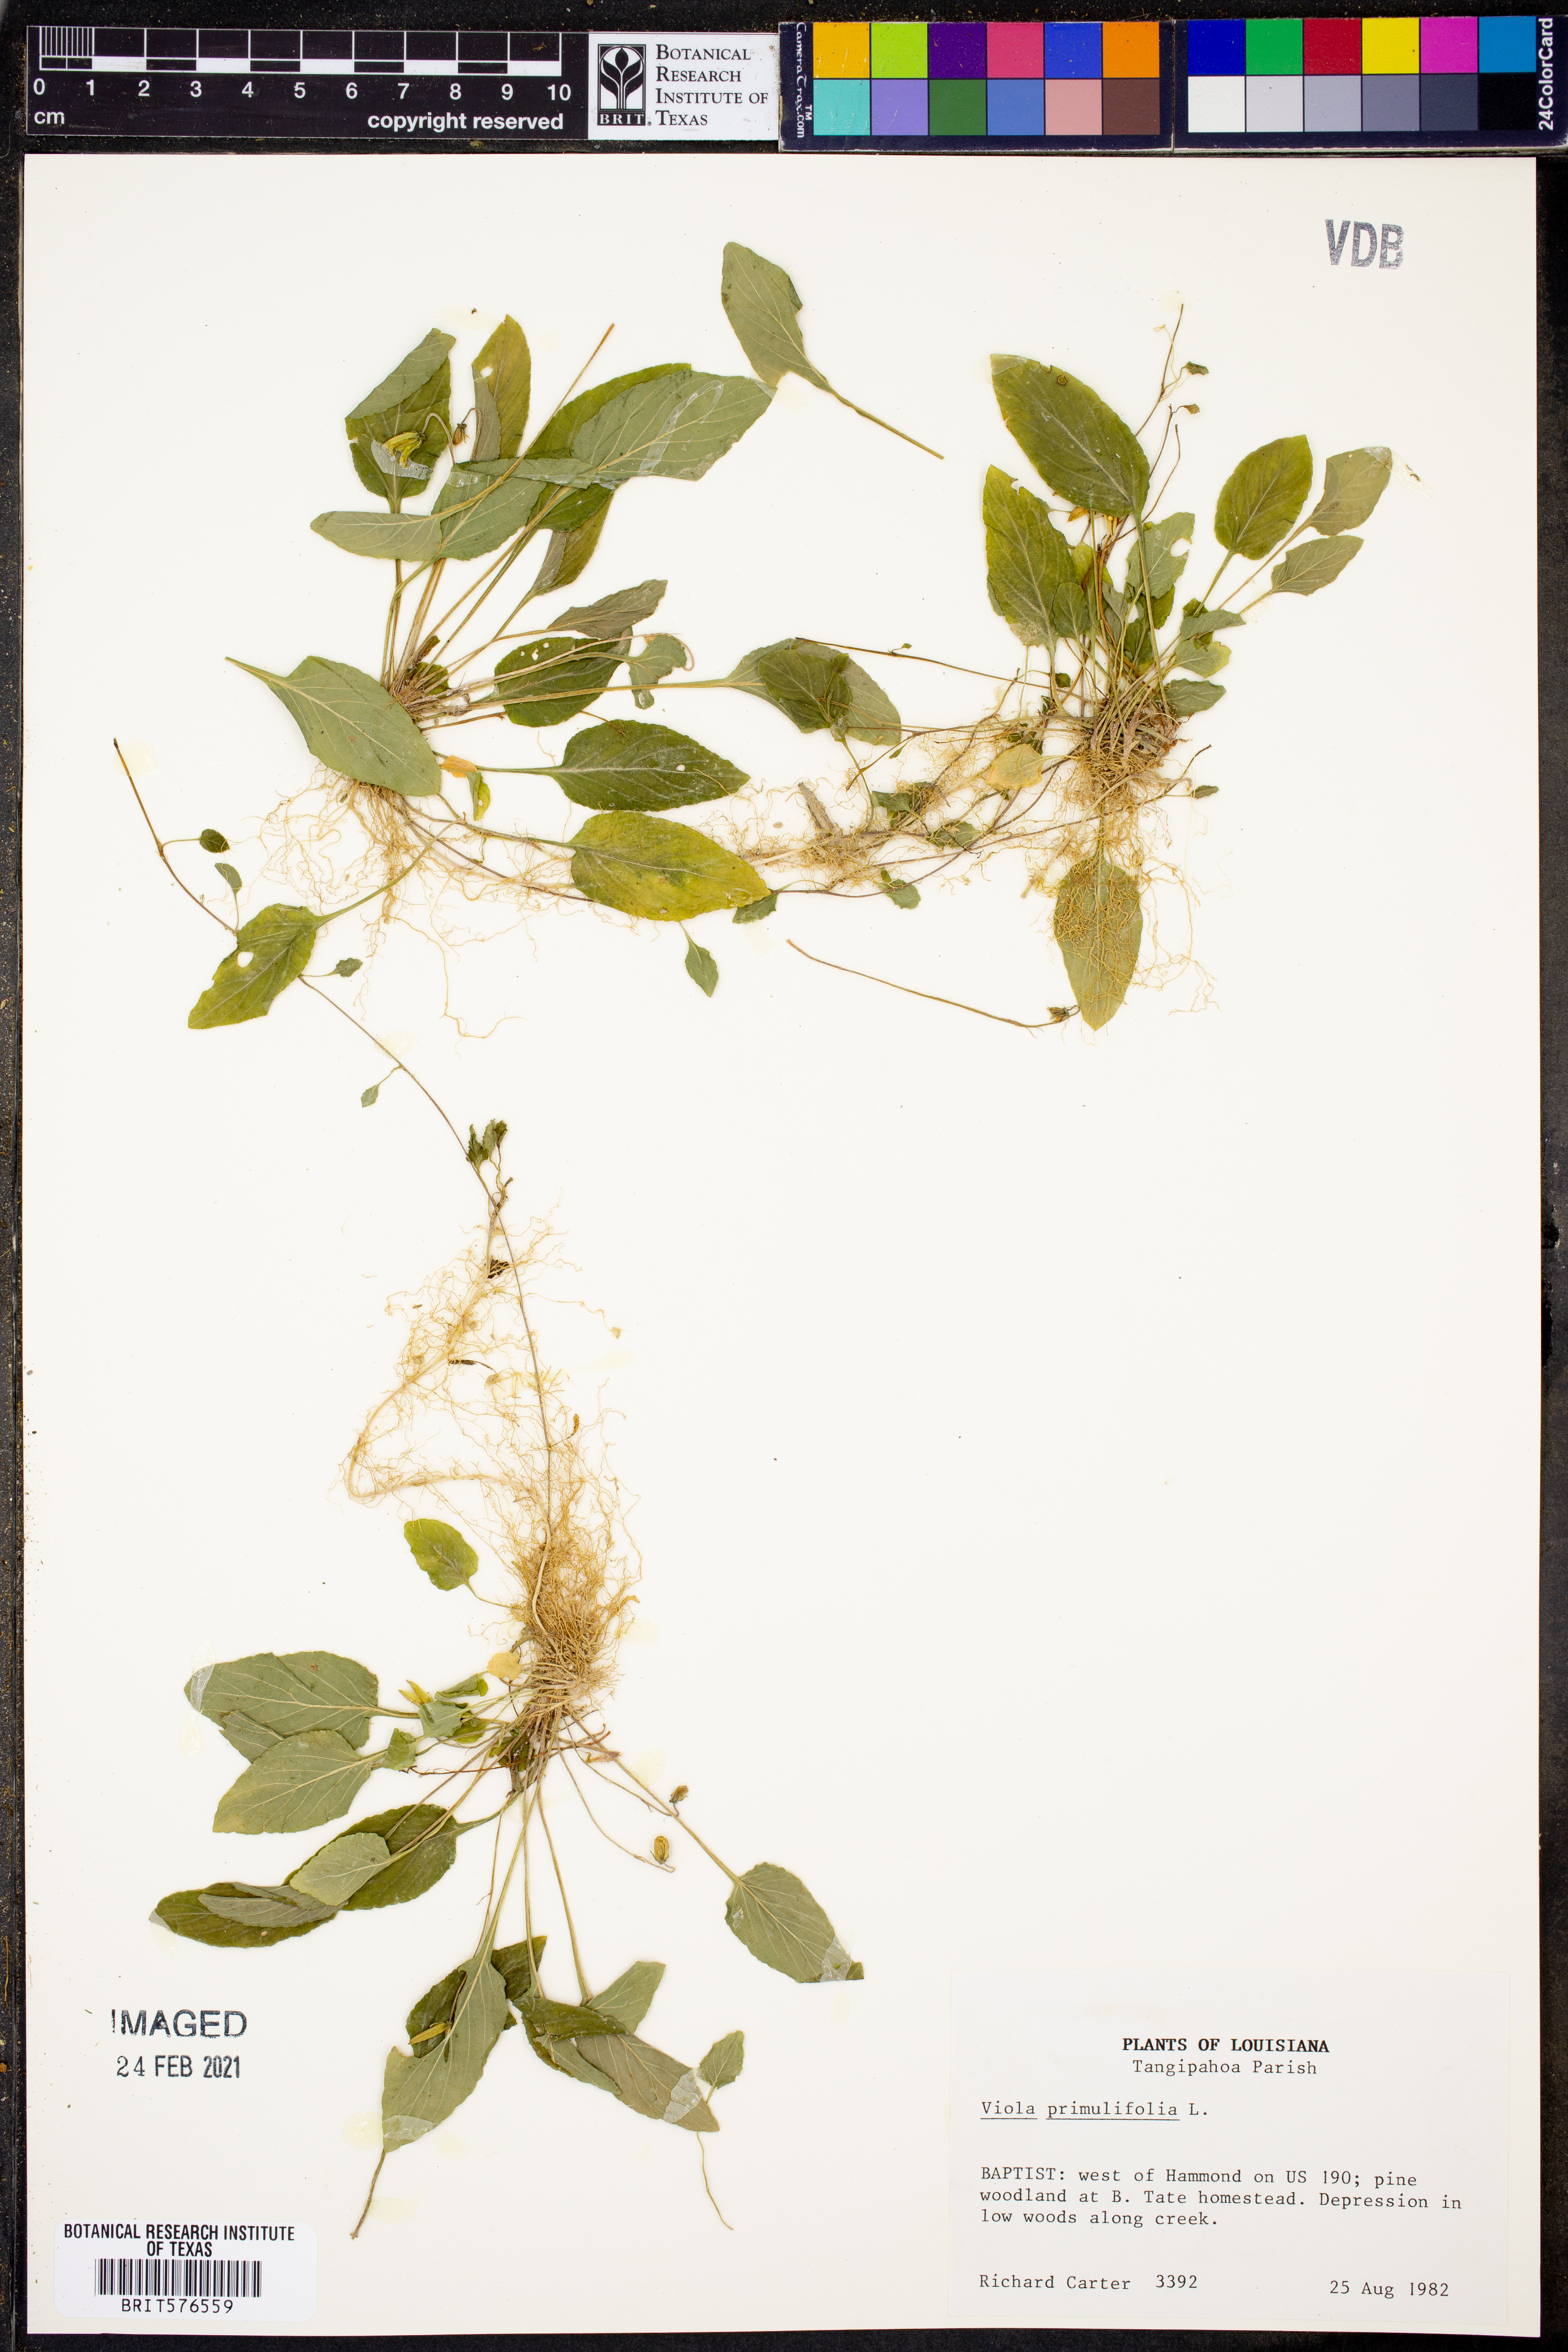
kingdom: Plantae
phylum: Tracheophyta
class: Magnoliopsida
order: Malpighiales
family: Violaceae
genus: Viola
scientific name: Viola primulifolia
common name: Primrose-leaf violet
